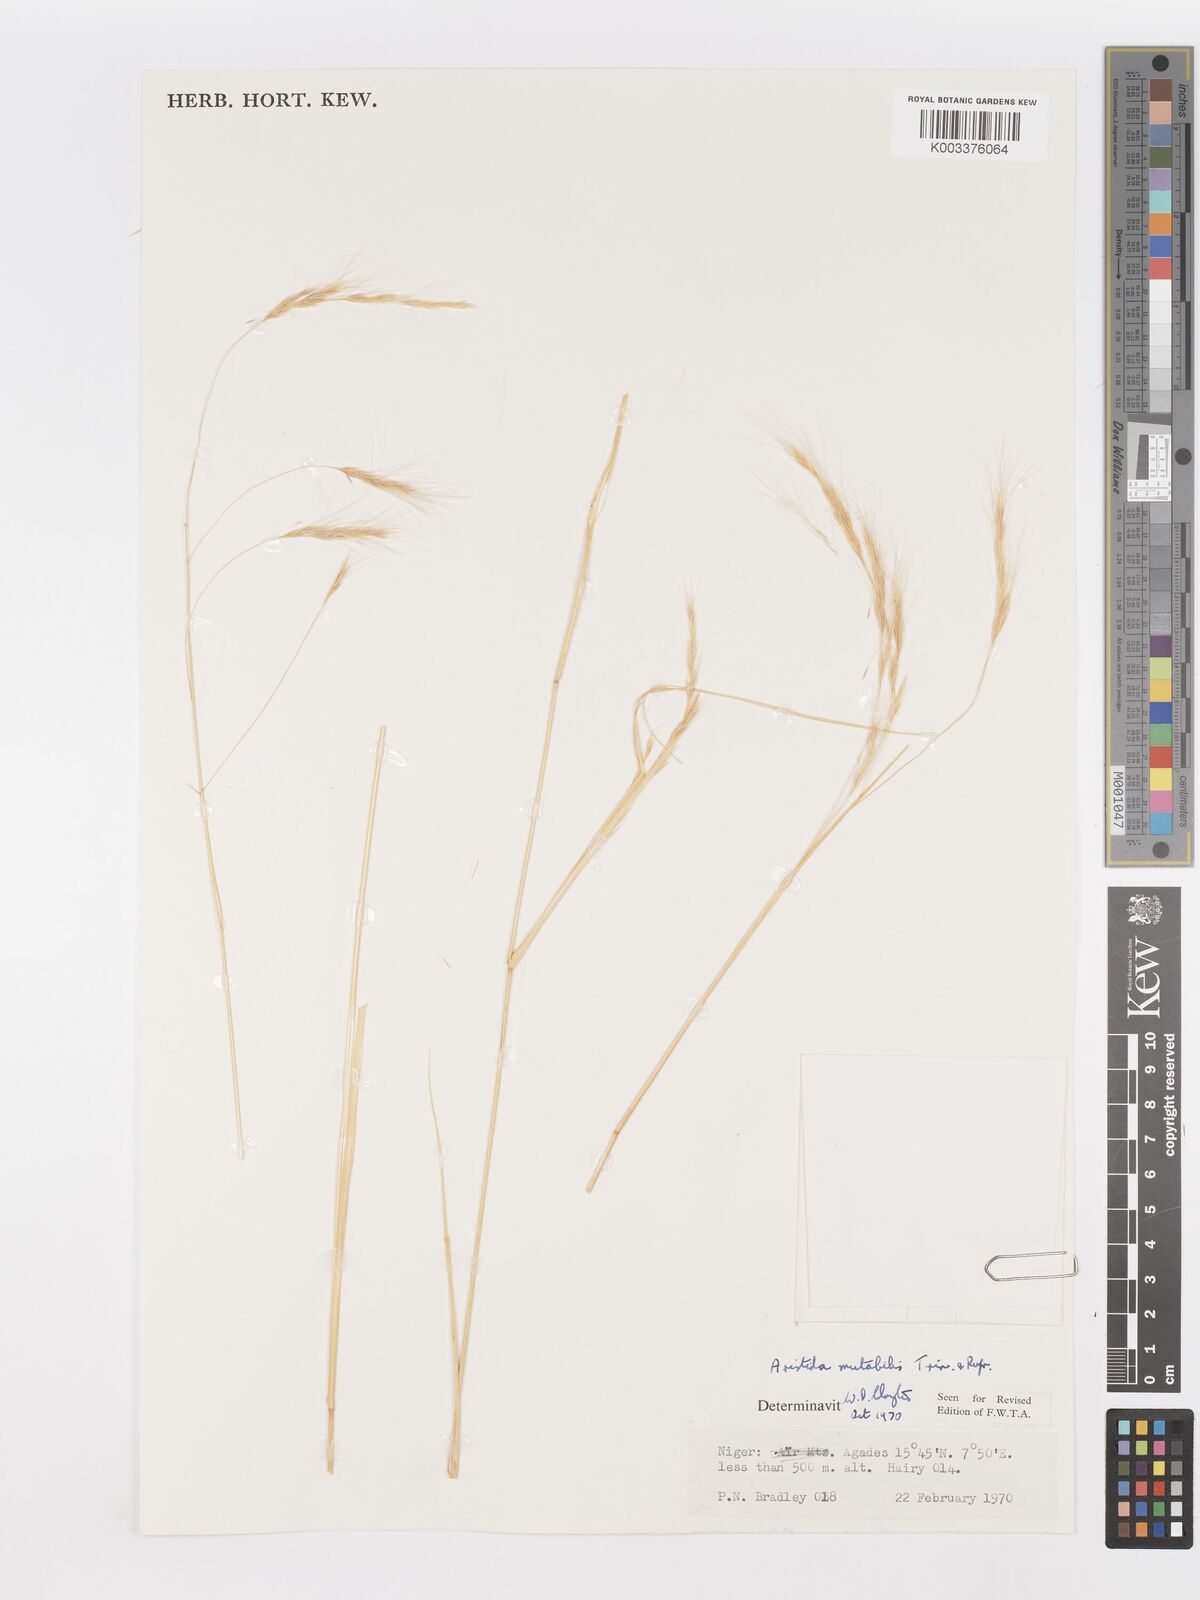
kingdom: Plantae
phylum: Tracheophyta
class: Liliopsida
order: Poales
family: Poaceae
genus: Aristida
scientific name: Aristida mutabilis
